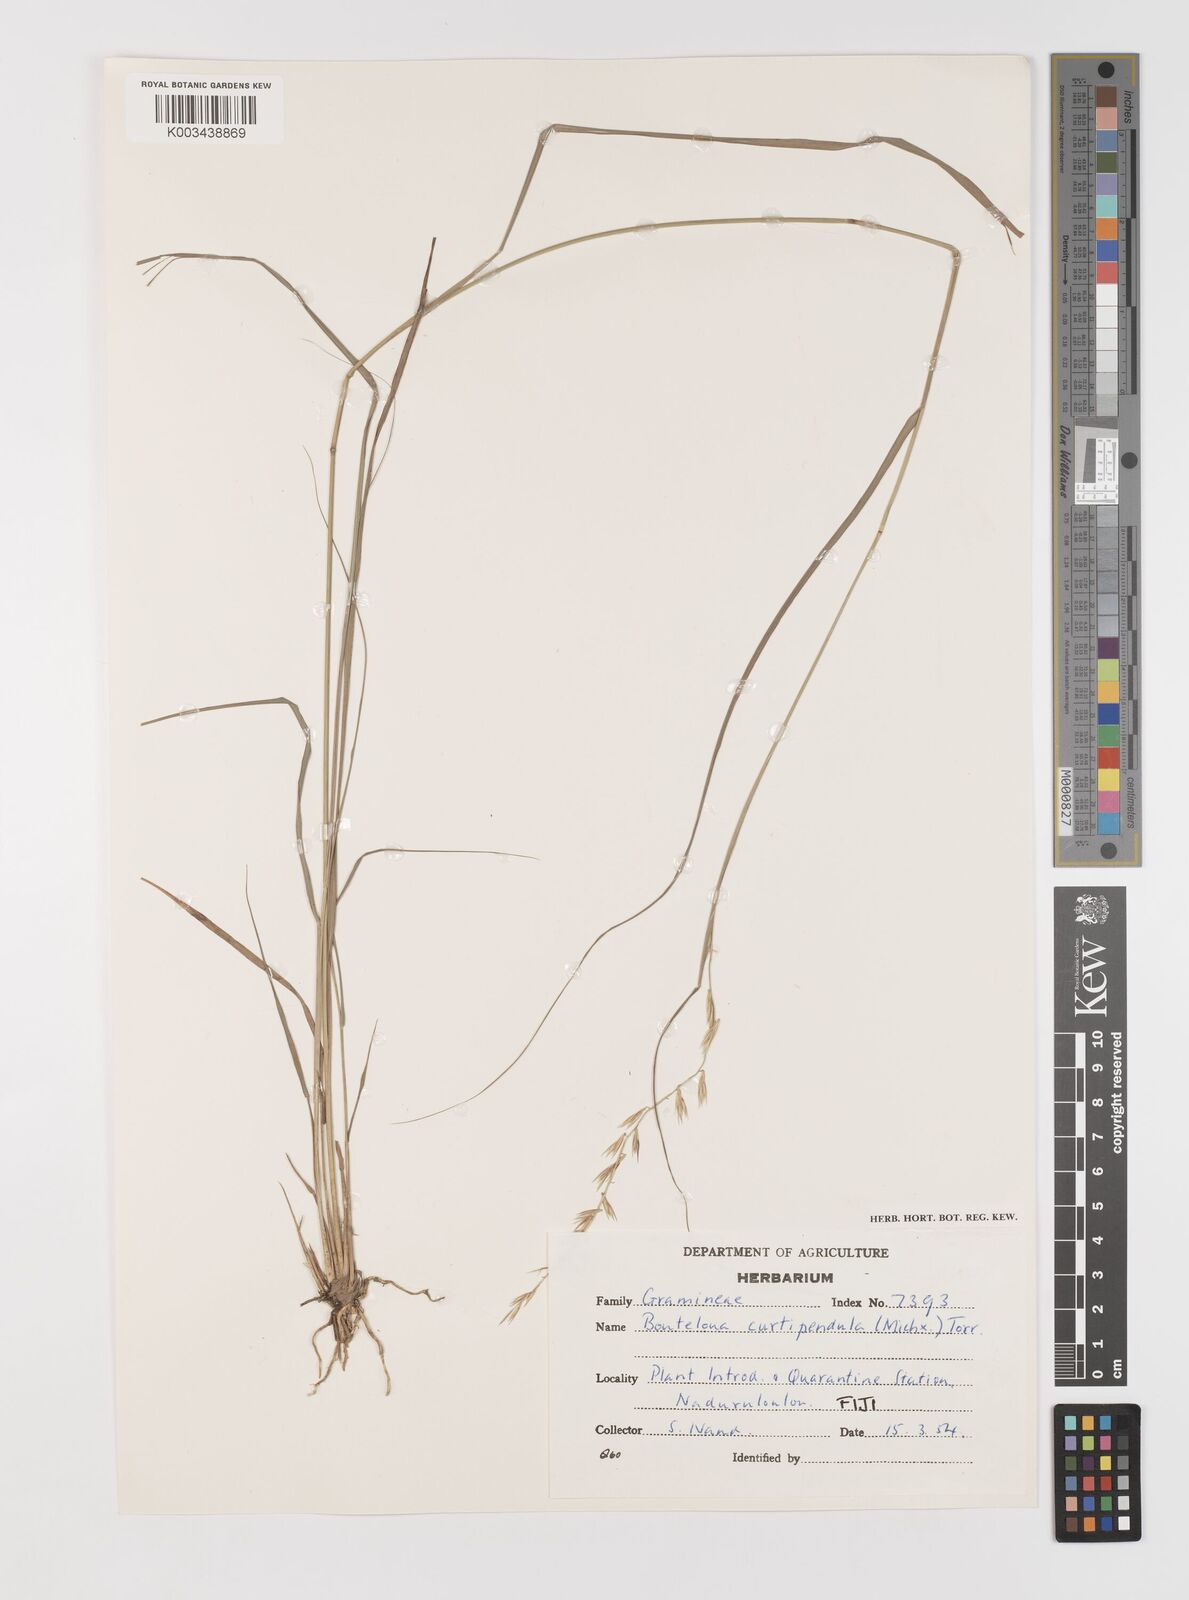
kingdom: Plantae
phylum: Tracheophyta
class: Liliopsida
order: Poales
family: Poaceae
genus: Bouteloua
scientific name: Bouteloua curtipendula
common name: Side-oats grama
